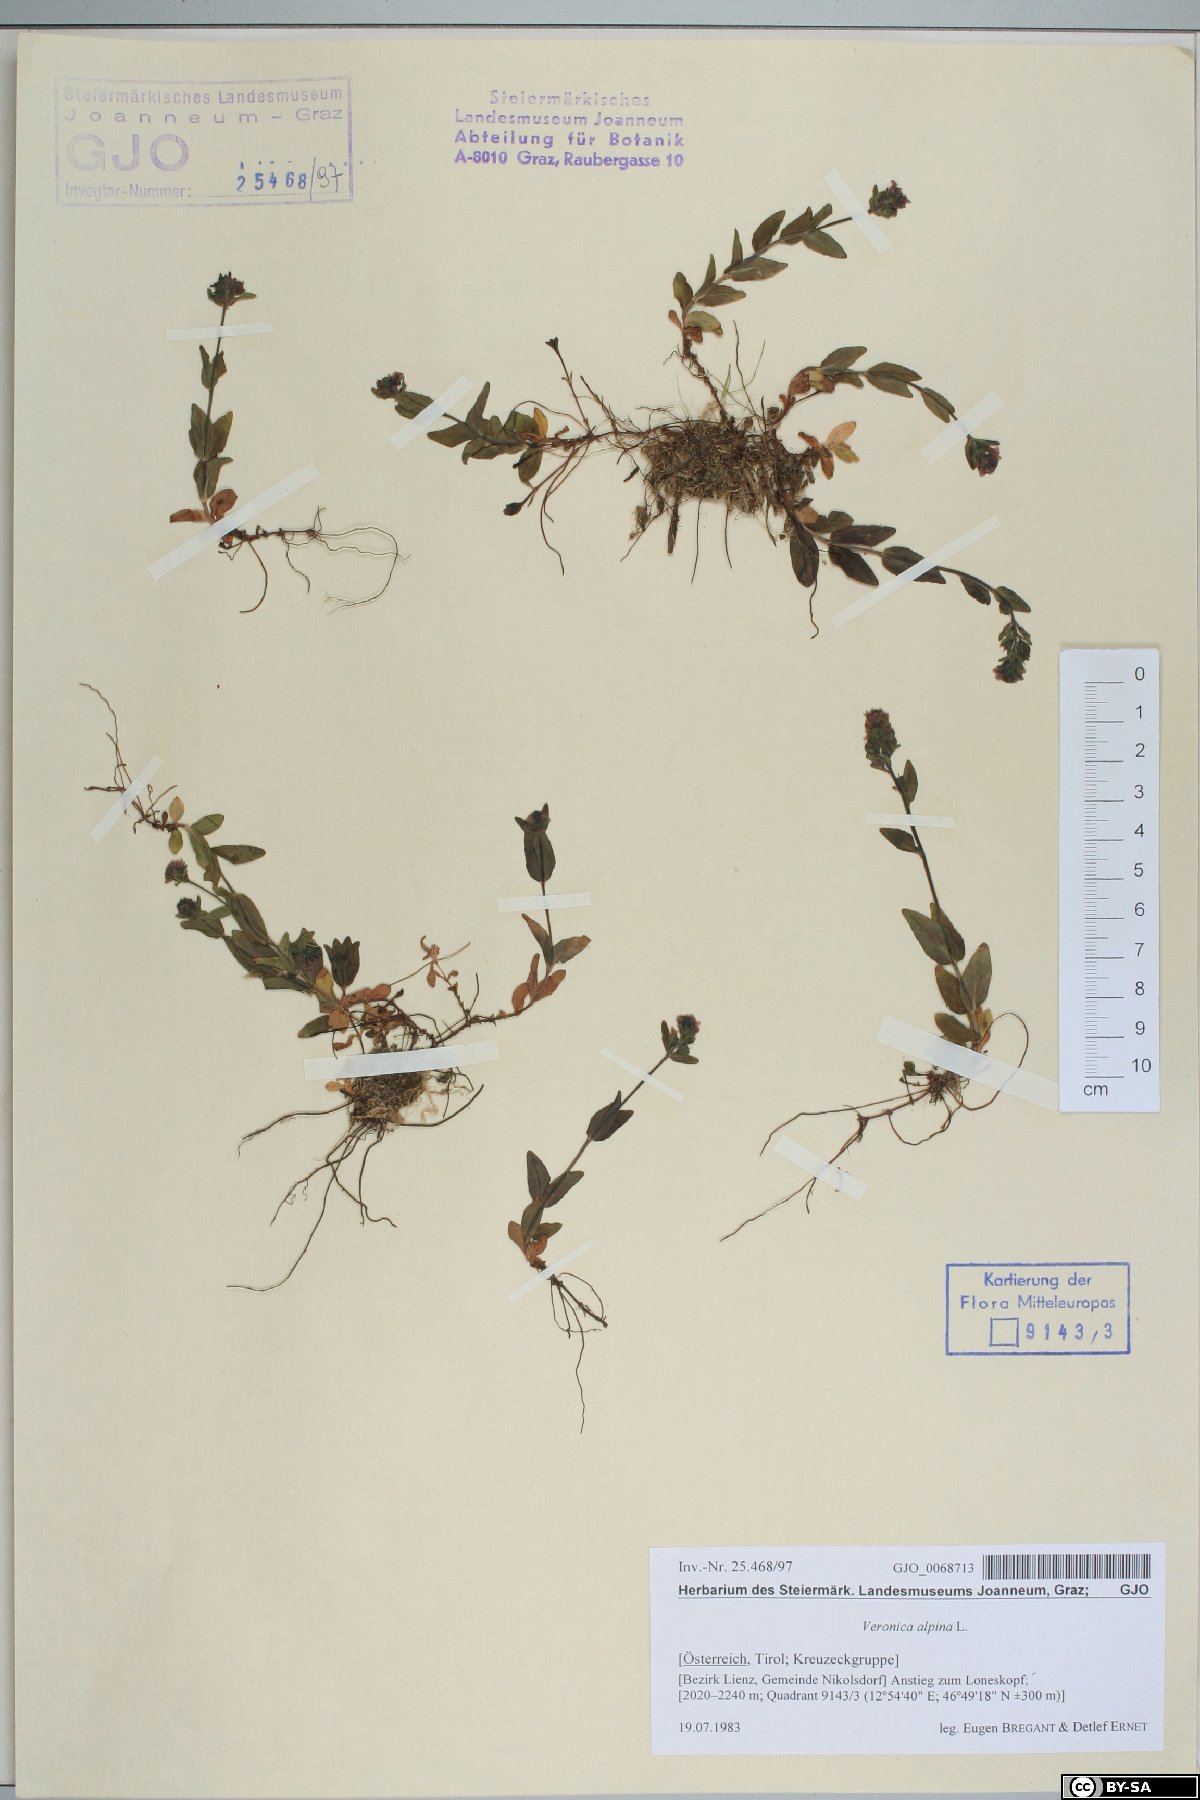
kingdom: Plantae
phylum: Tracheophyta
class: Magnoliopsida
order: Lamiales
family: Plantaginaceae
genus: Veronica
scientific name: Veronica alpina
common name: Alpine speedwell
